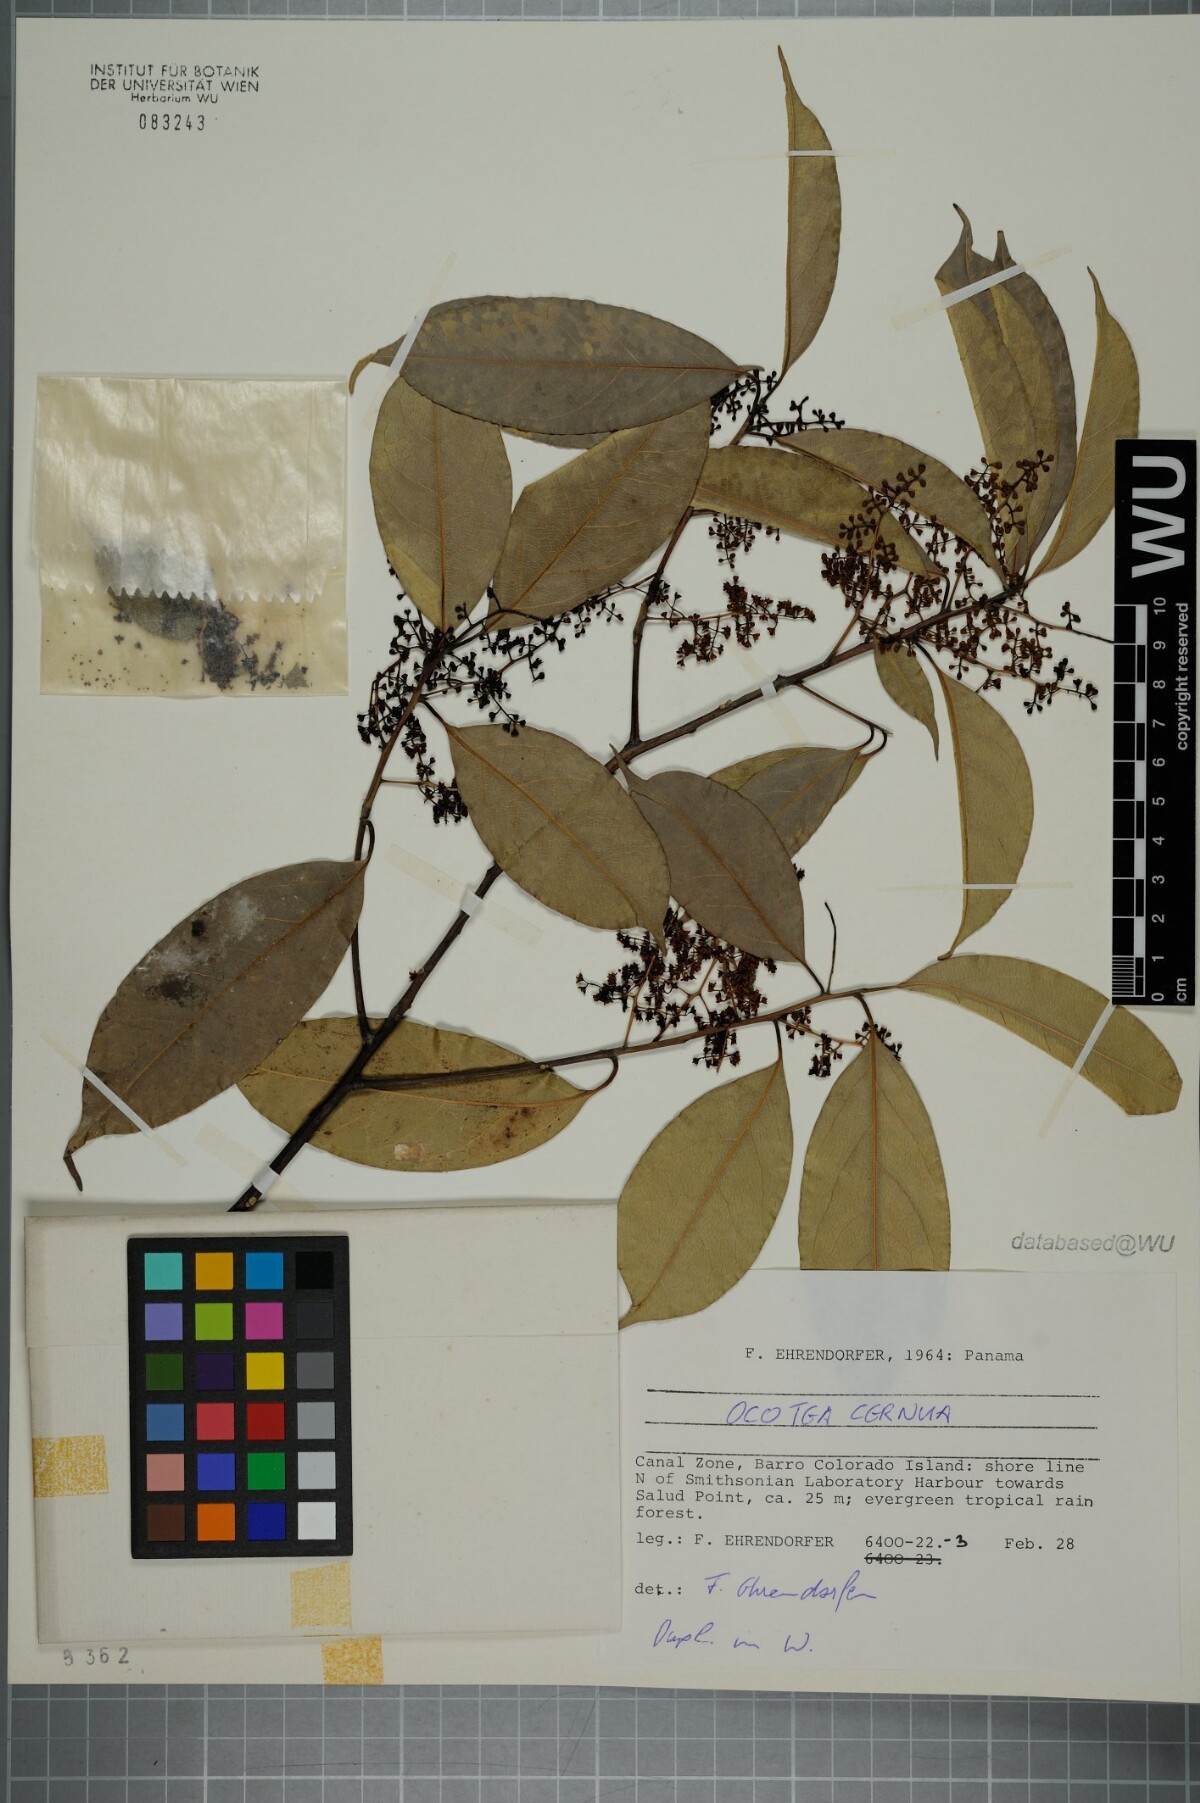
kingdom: Plantae
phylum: Tracheophyta
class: Magnoliopsida
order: Laurales
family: Lauraceae
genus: Ocotea
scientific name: Ocotea leptobotra
